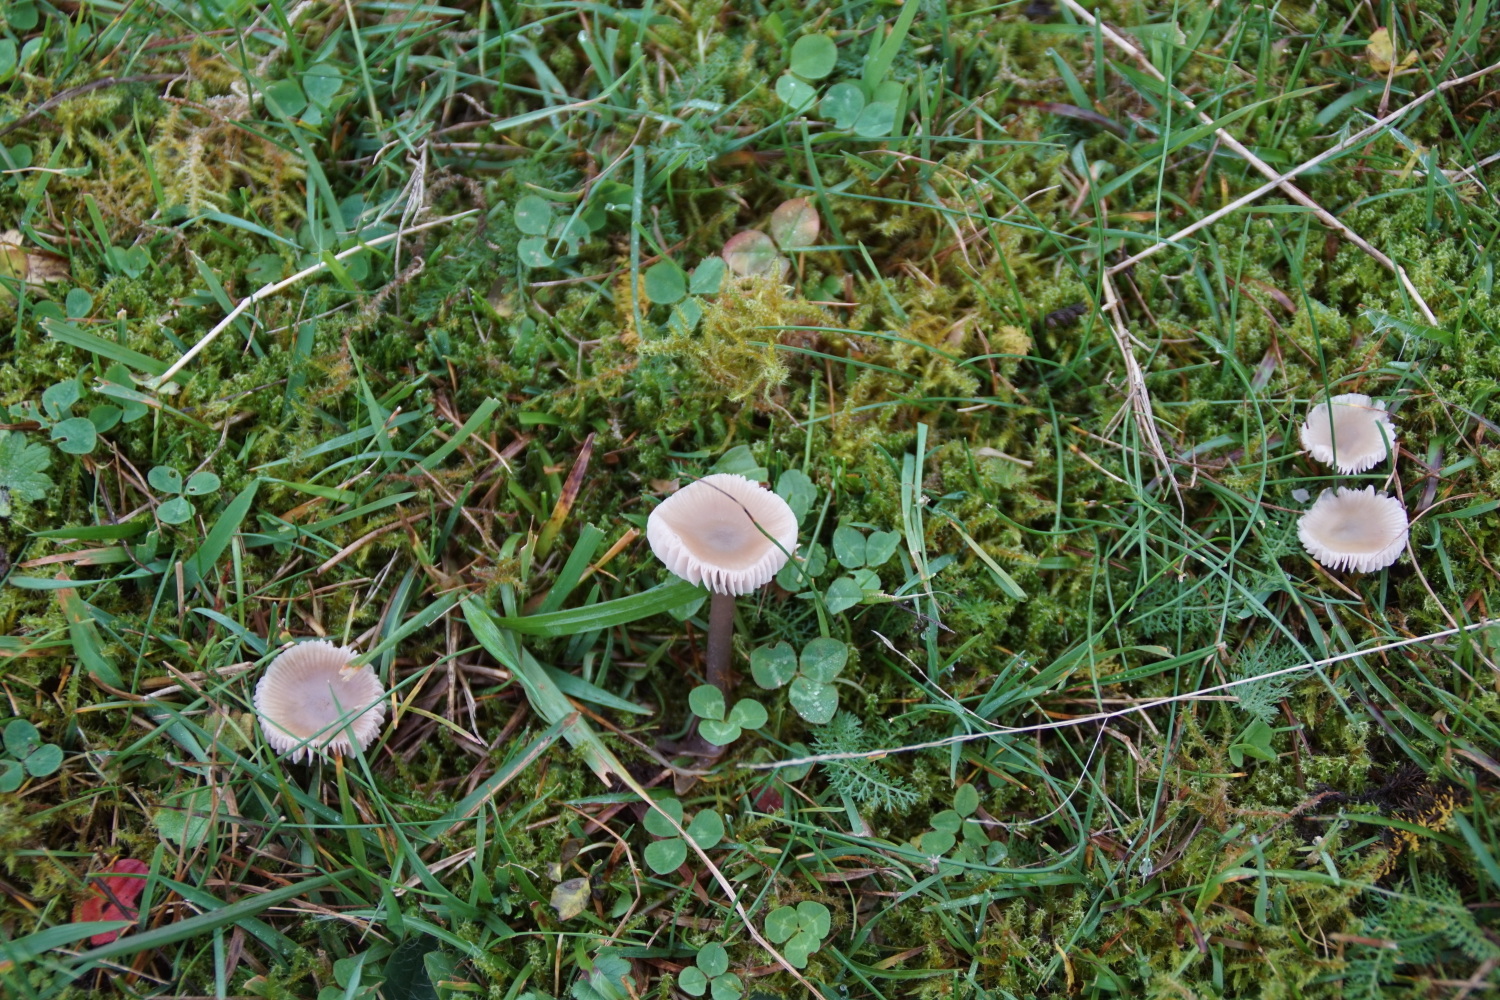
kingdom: Fungi
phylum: Basidiomycota
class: Agaricomycetes
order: Agaricales
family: Mycenaceae
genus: Mycena
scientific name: Mycena luteovariegata
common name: lillagul huesvamp
